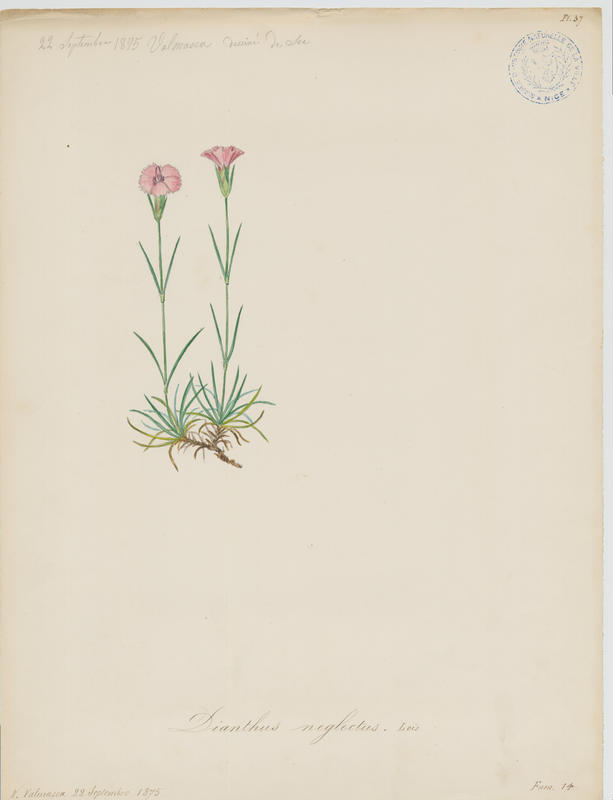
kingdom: Plantae
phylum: Tracheophyta
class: Magnoliopsida
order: Caryophyllales
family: Caryophyllaceae
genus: Dianthus
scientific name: Dianthus pavonius
